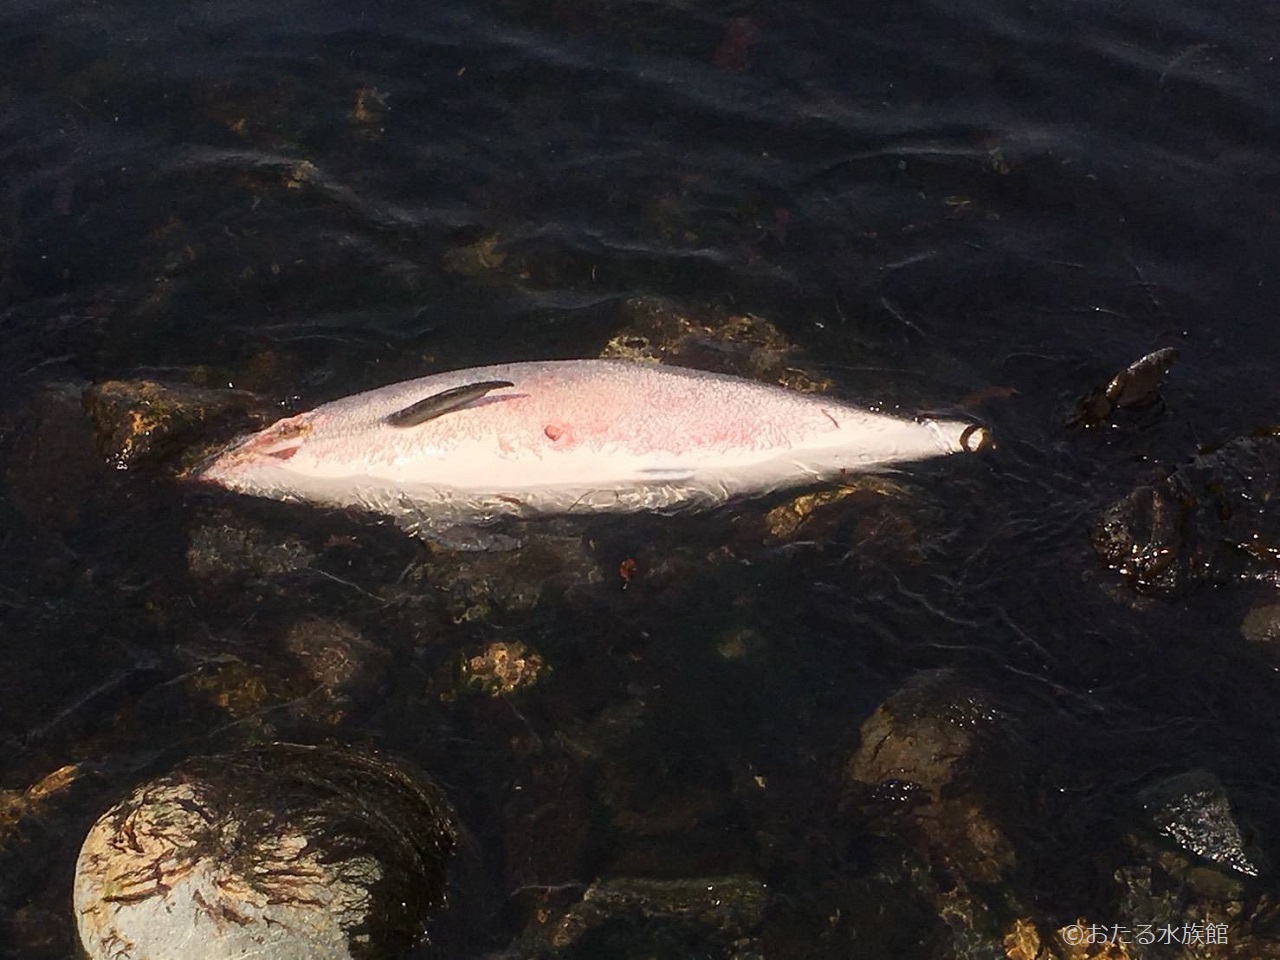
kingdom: Animalia
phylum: Chordata
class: Mammalia
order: Cetacea
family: Phocoenidae
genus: Phocoena
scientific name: Phocoena phocoena
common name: Harbour porpoise
